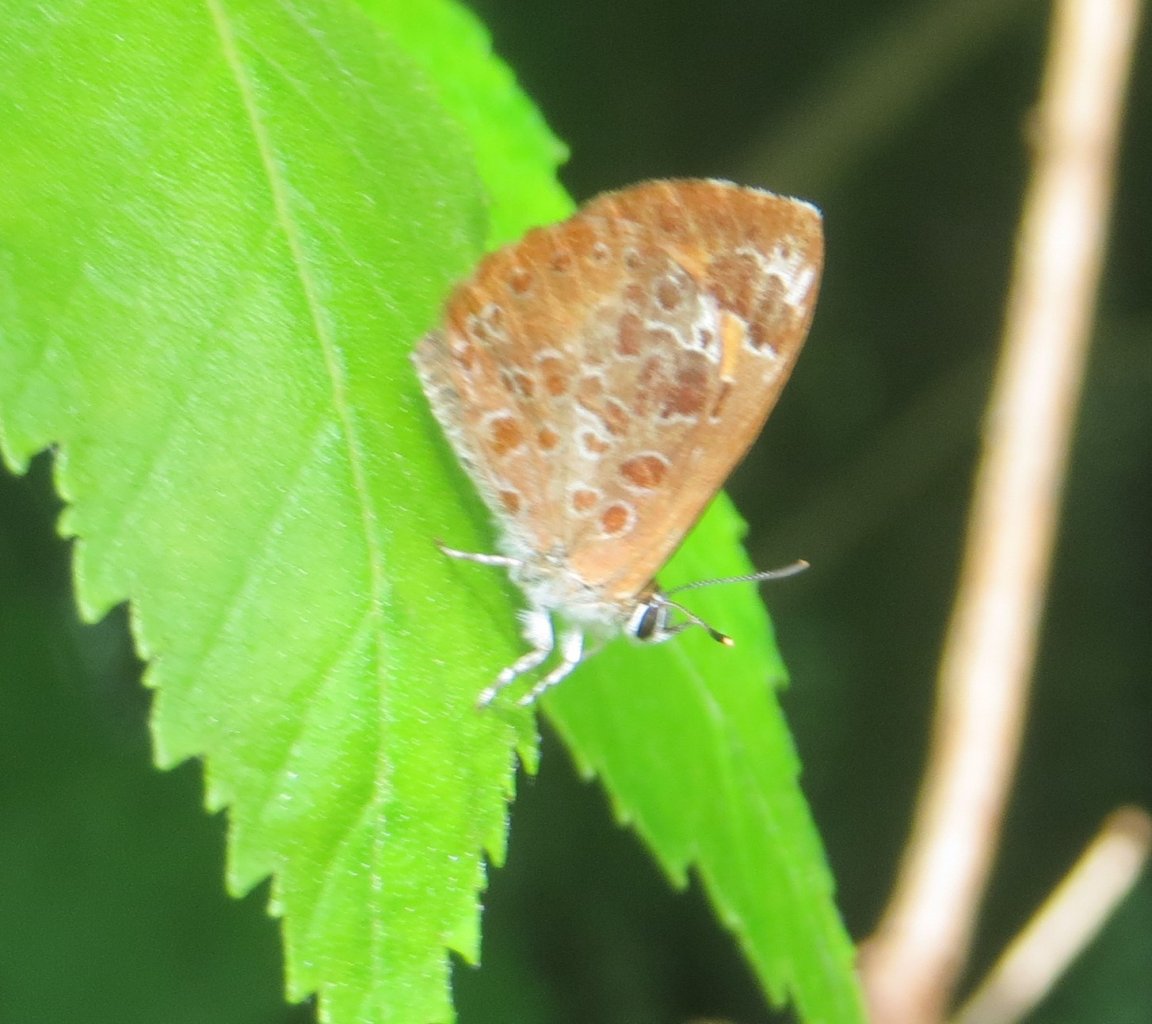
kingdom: Animalia
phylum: Arthropoda
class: Insecta
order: Lepidoptera
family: Lycaenidae
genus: Feniseca
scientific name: Feniseca tarquinius
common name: Harvester
